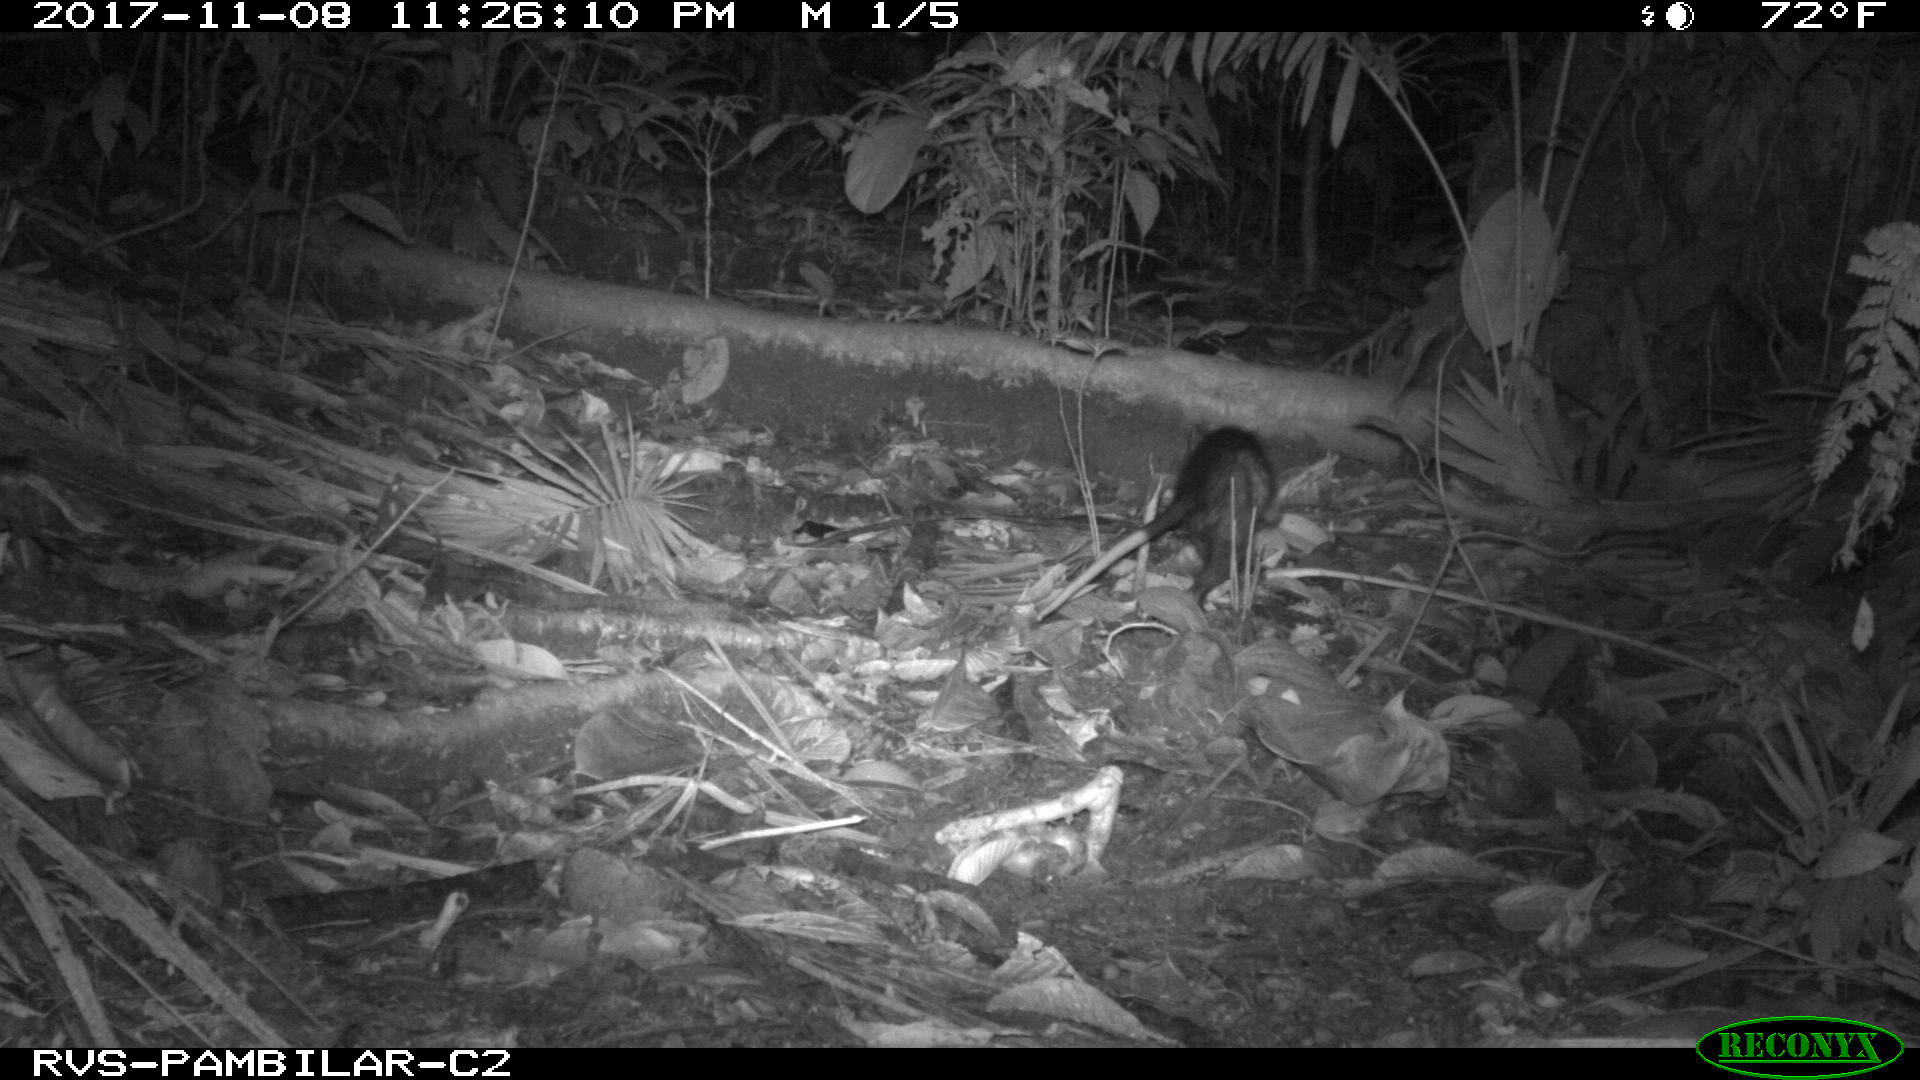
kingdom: Animalia
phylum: Chordata
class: Mammalia
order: Didelphimorphia
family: Didelphidae
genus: Didelphis
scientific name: Didelphis marsupialis
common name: Common opossum
